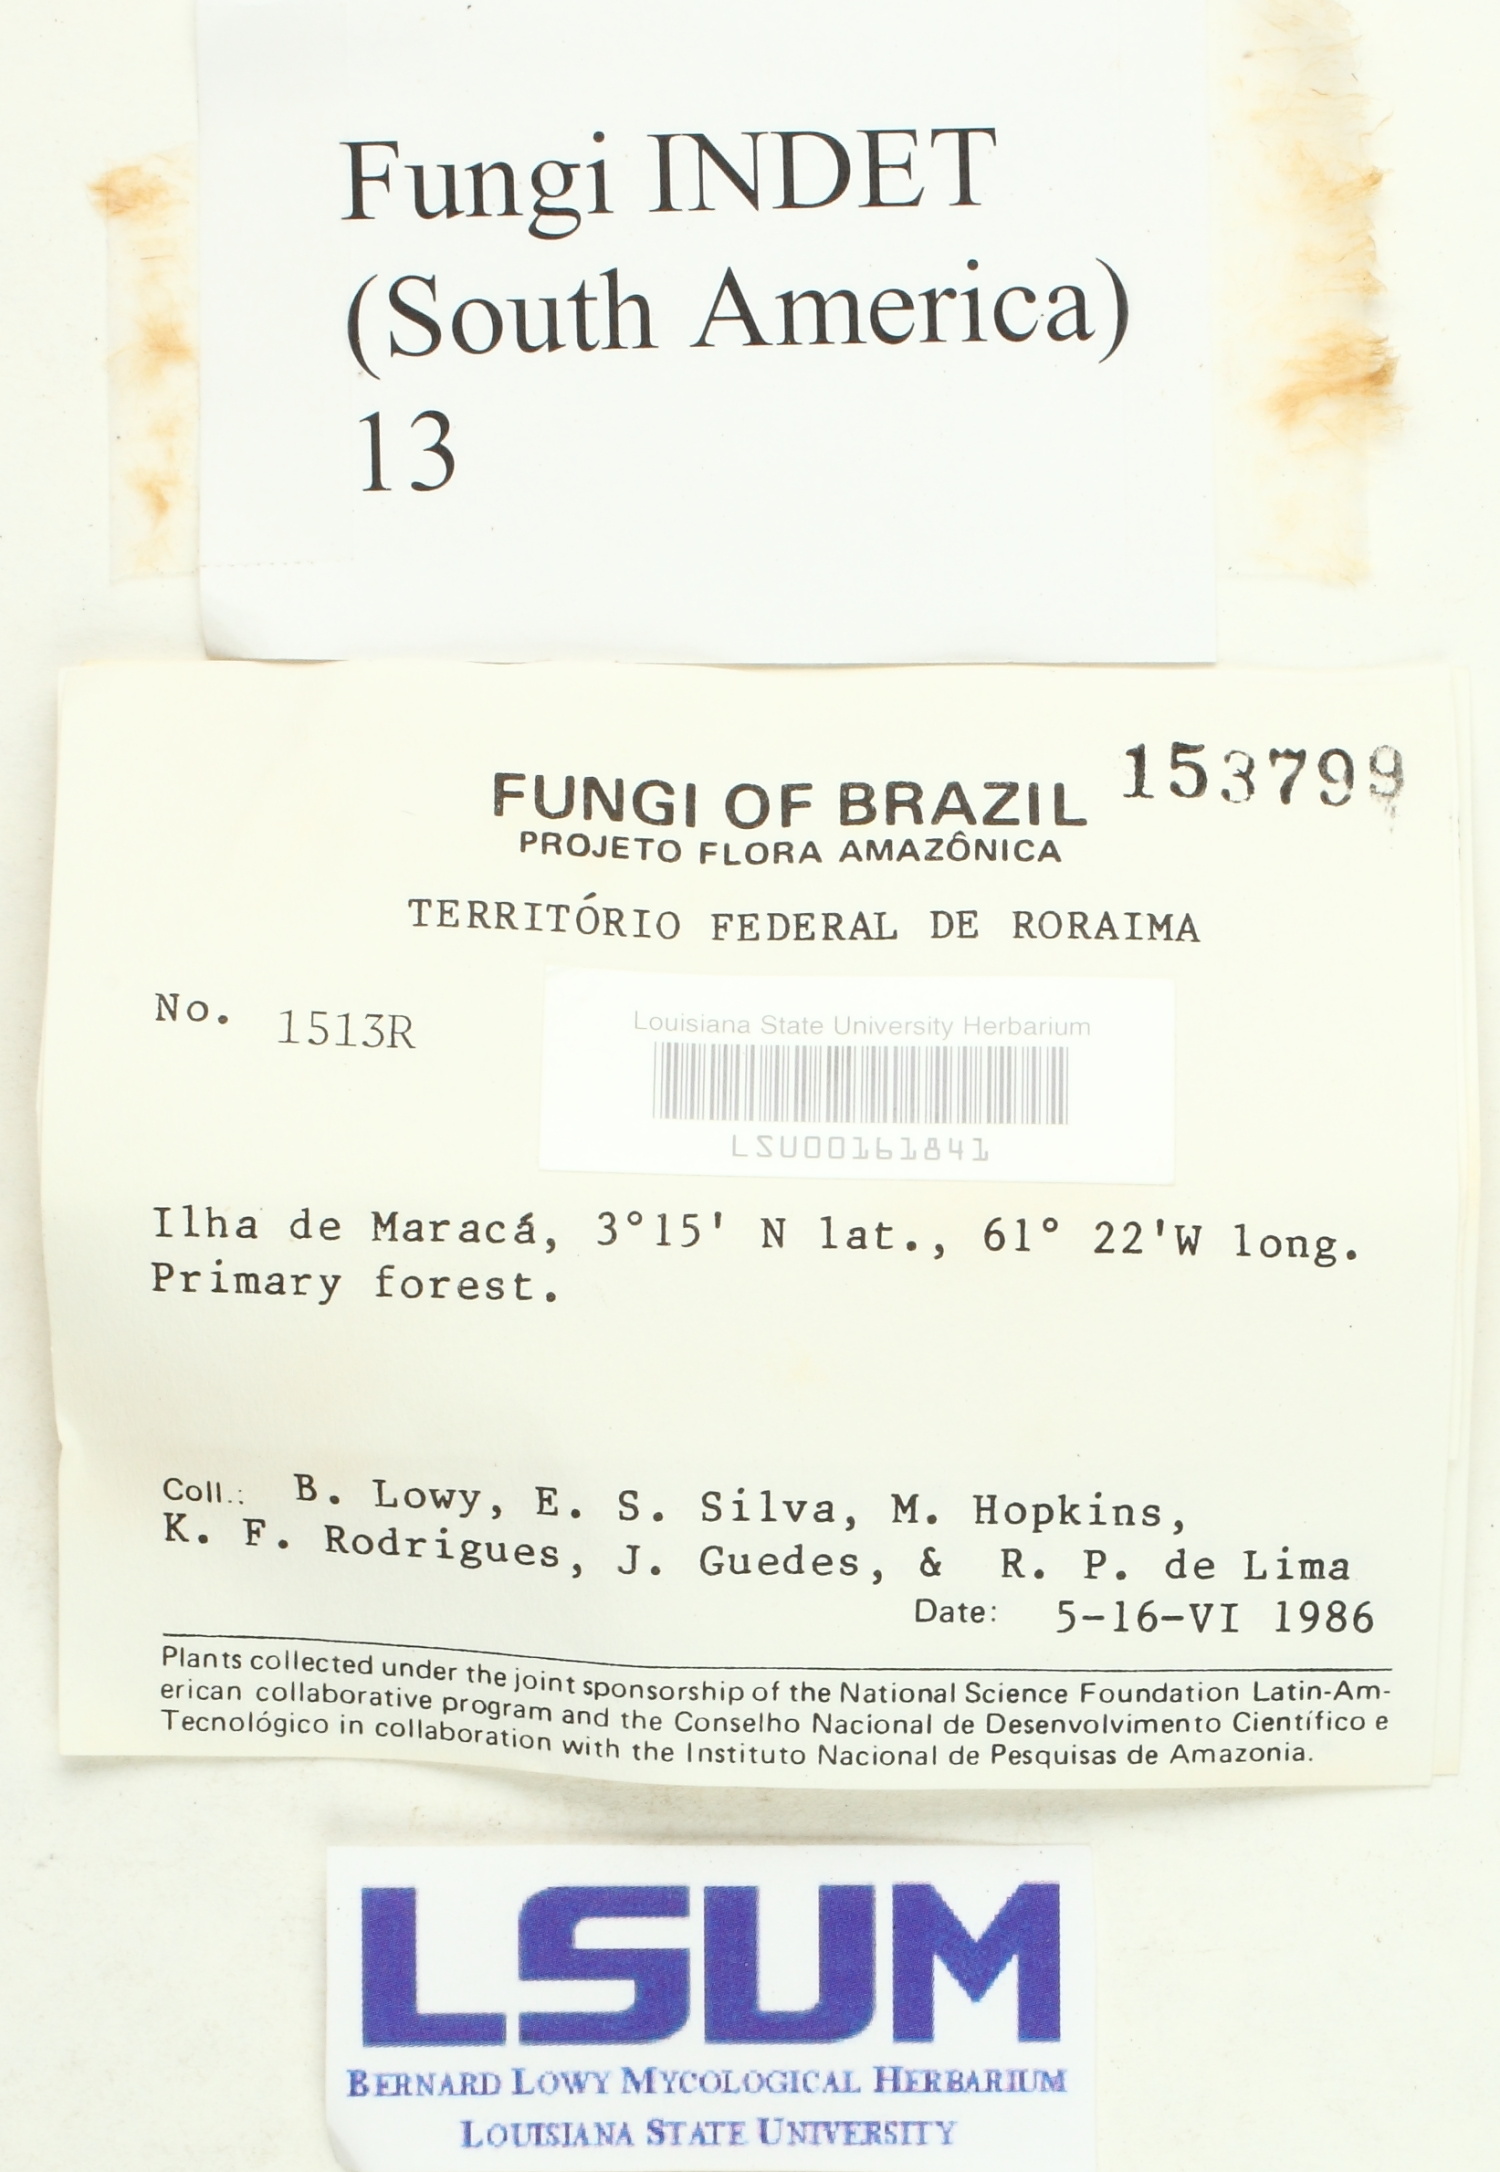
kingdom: Fungi
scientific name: Fungi
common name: Fungi
